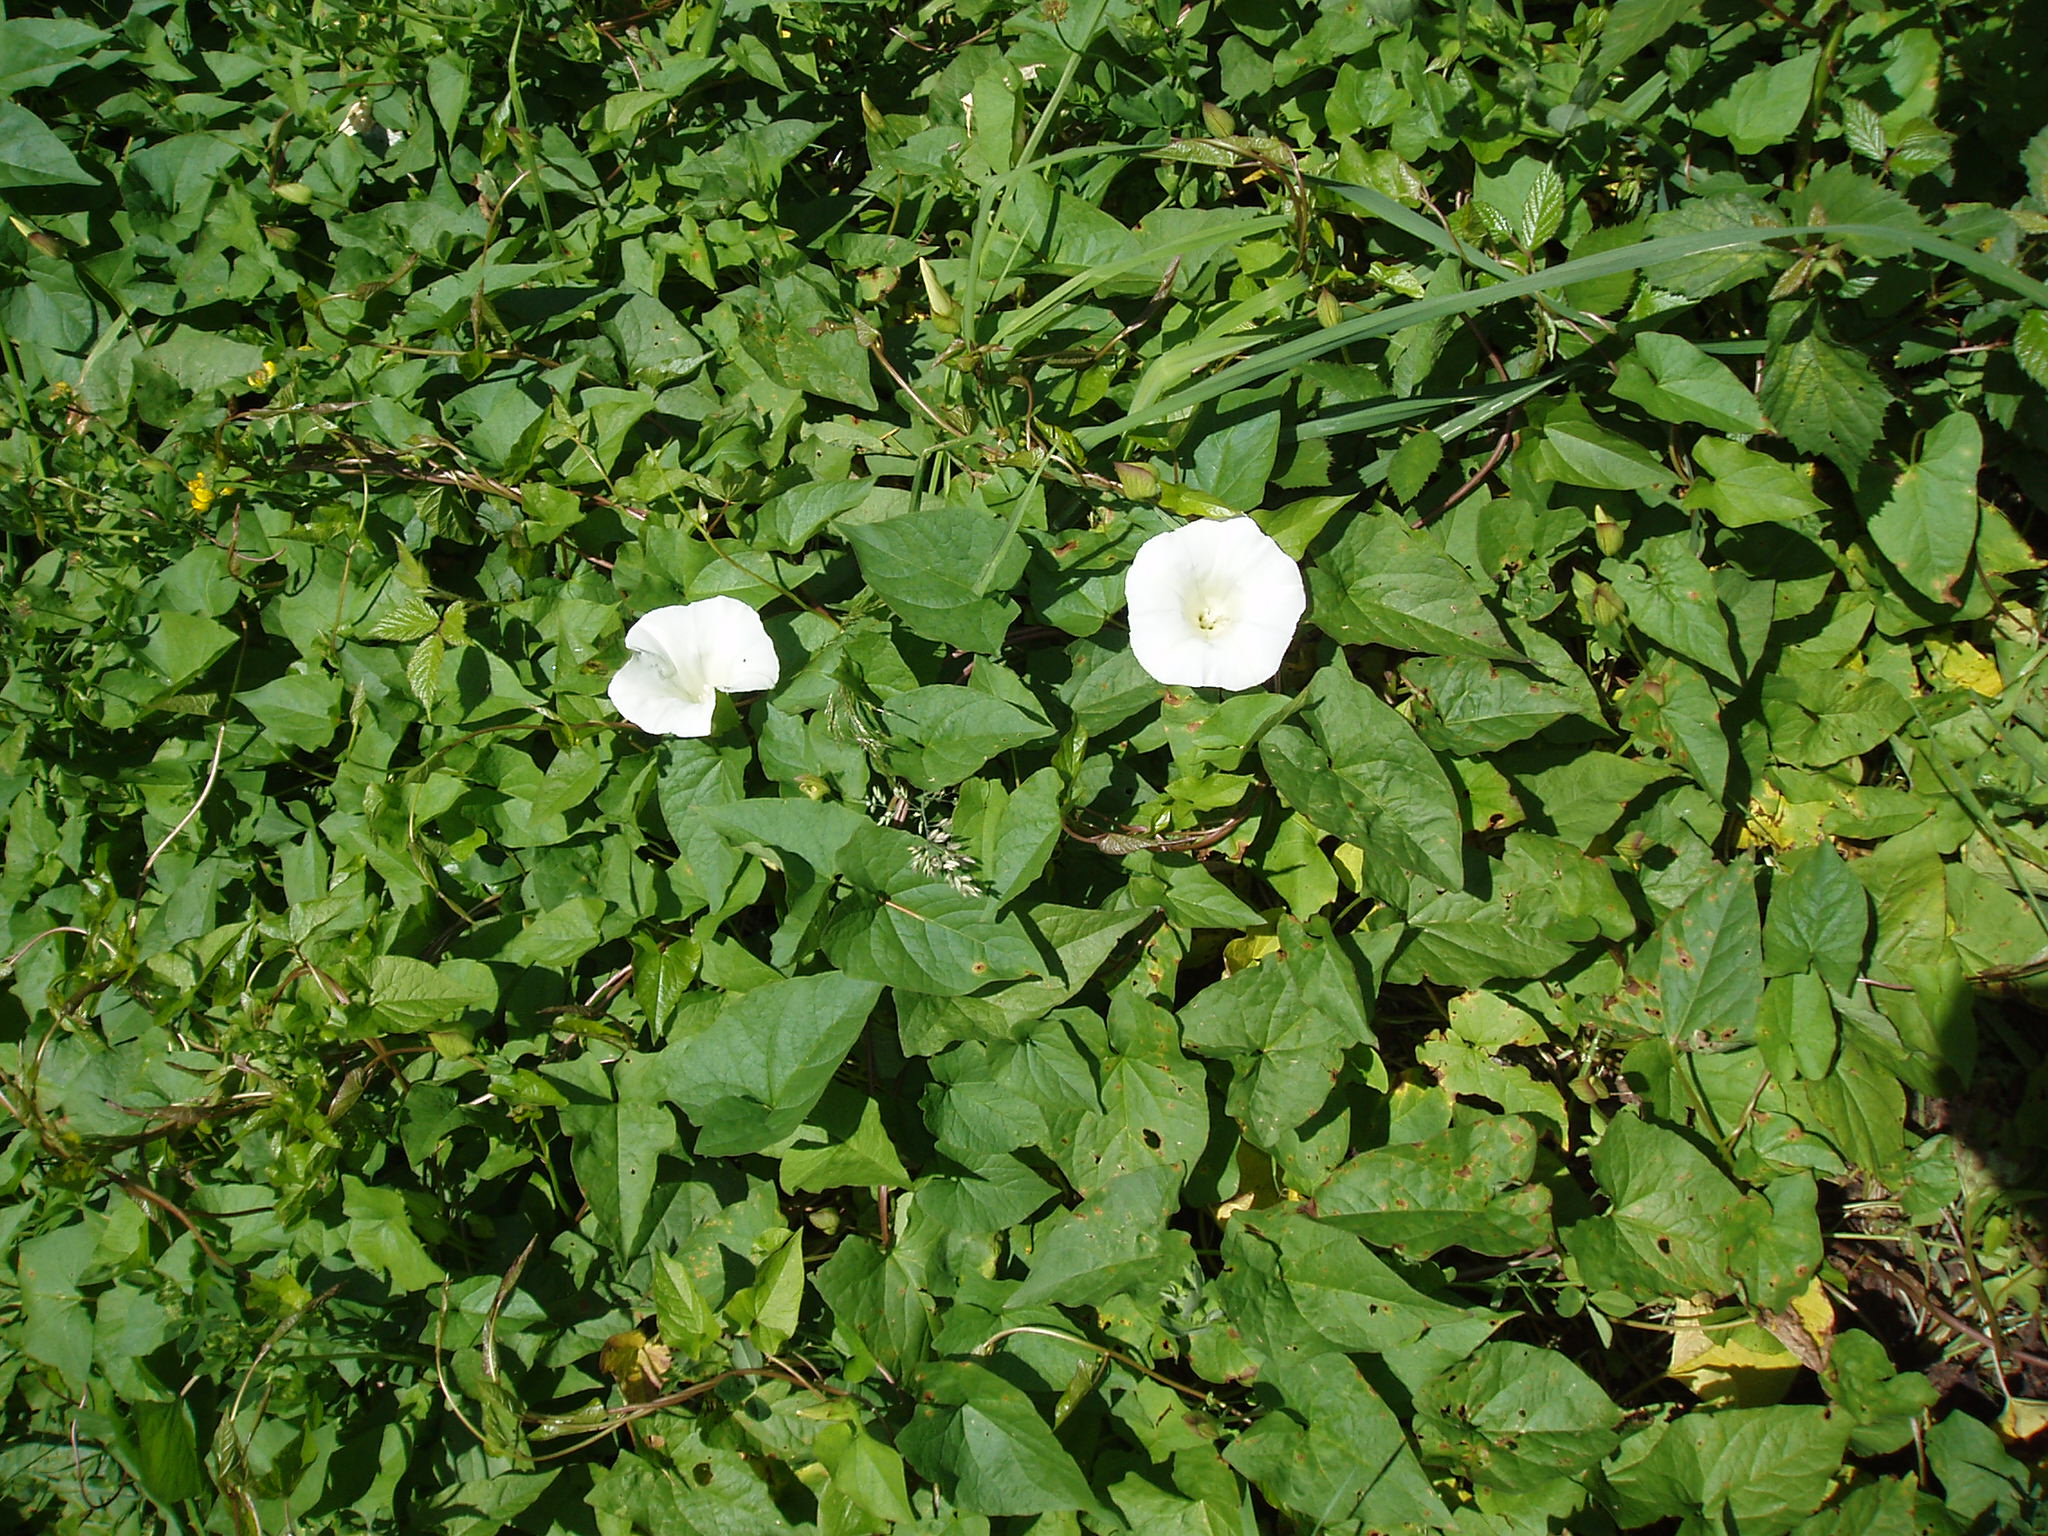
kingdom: Plantae
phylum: Tracheophyta
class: Magnoliopsida
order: Solanales
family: Convolvulaceae
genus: Calystegia
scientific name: Calystegia silvatica
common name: Large bindweed
